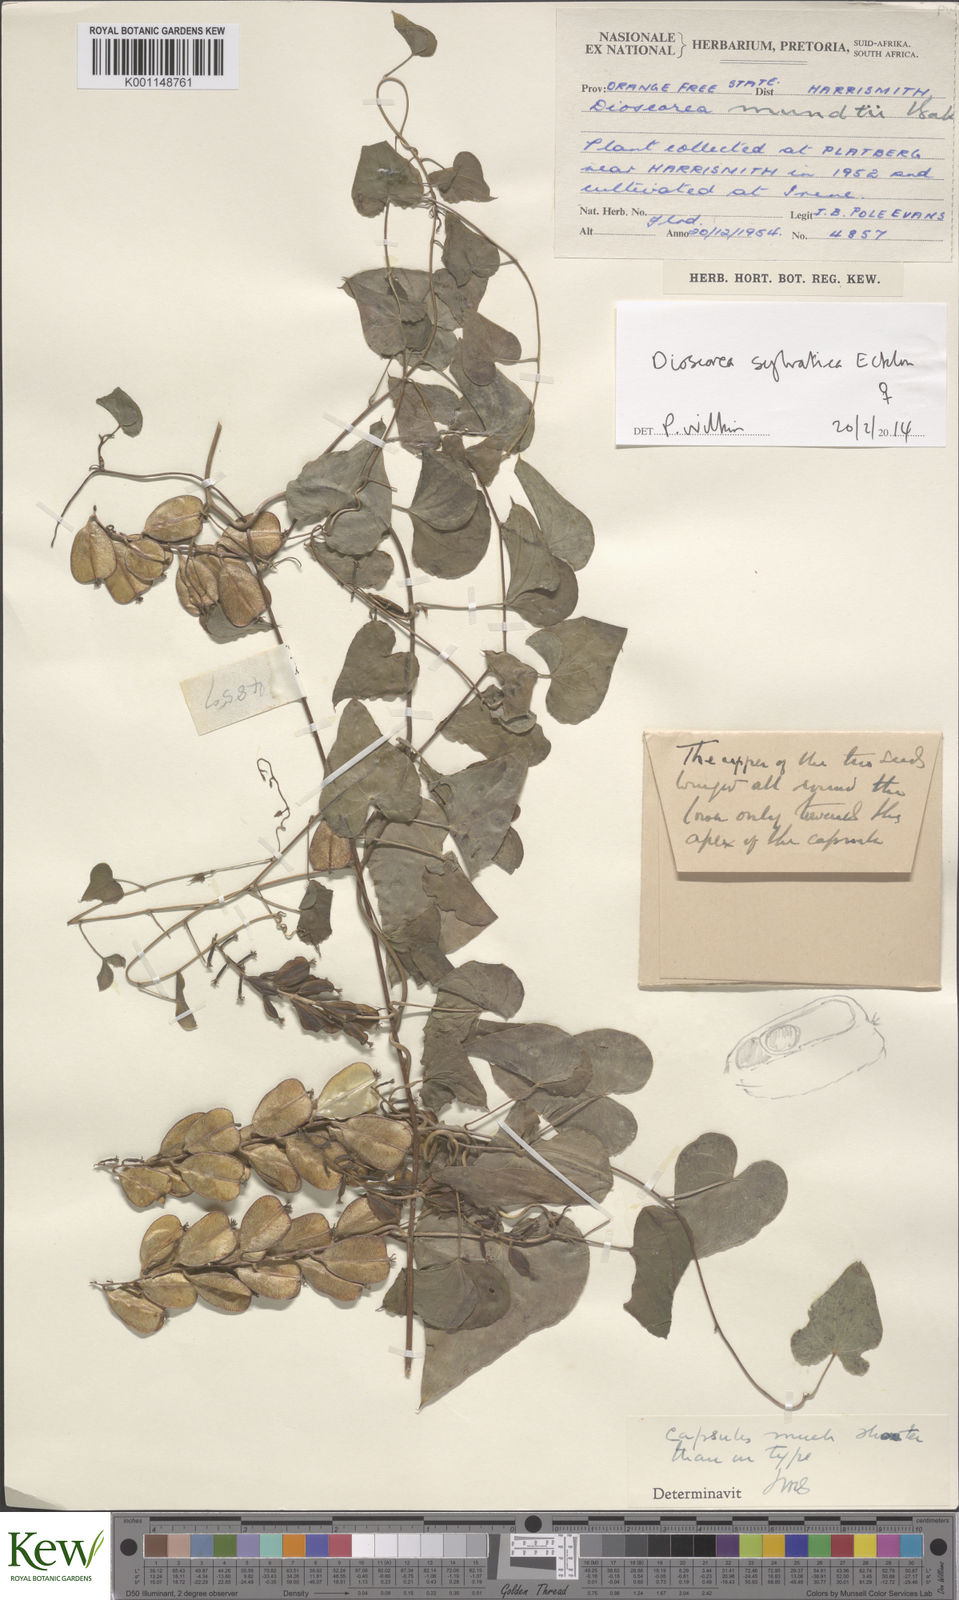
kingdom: Plantae
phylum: Tracheophyta
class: Liliopsida
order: Dioscoreales
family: Dioscoreaceae
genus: Dioscorea
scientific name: Dioscorea sylvatica
